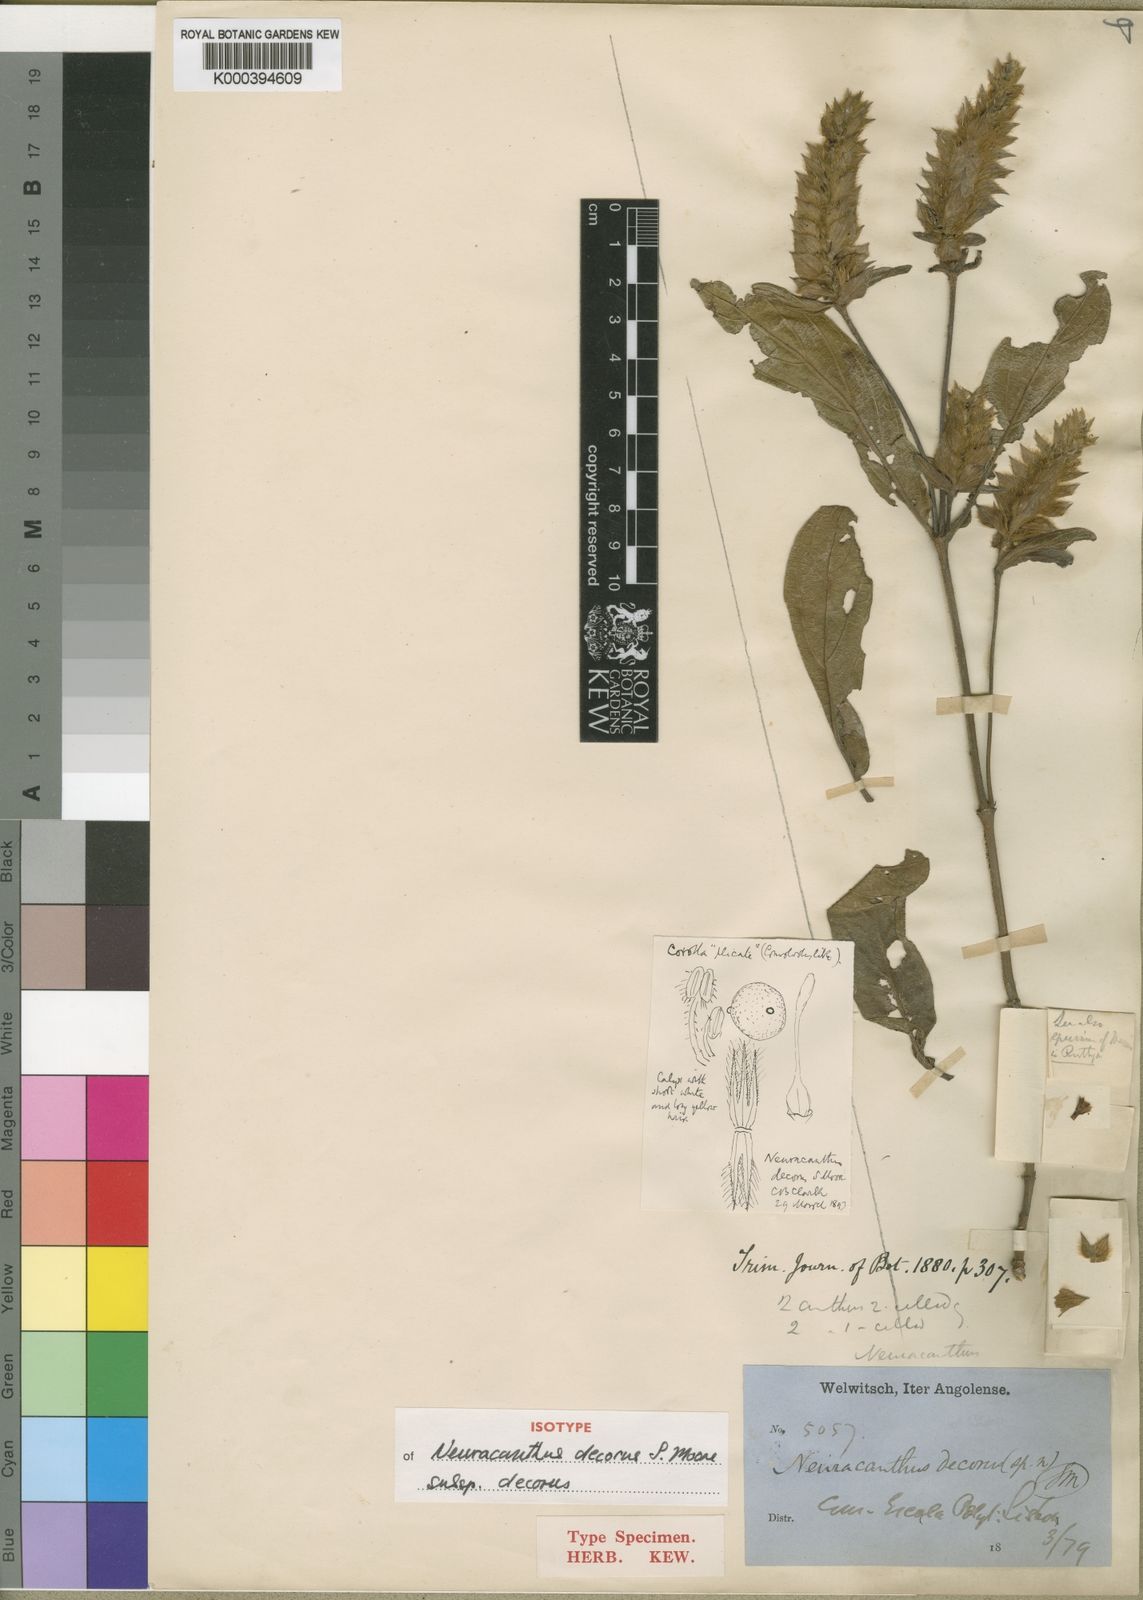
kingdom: Plantae
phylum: Tracheophyta
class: Magnoliopsida
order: Lamiales
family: Acanthaceae
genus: Neuracanthus
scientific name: Neuracanthus decorus
